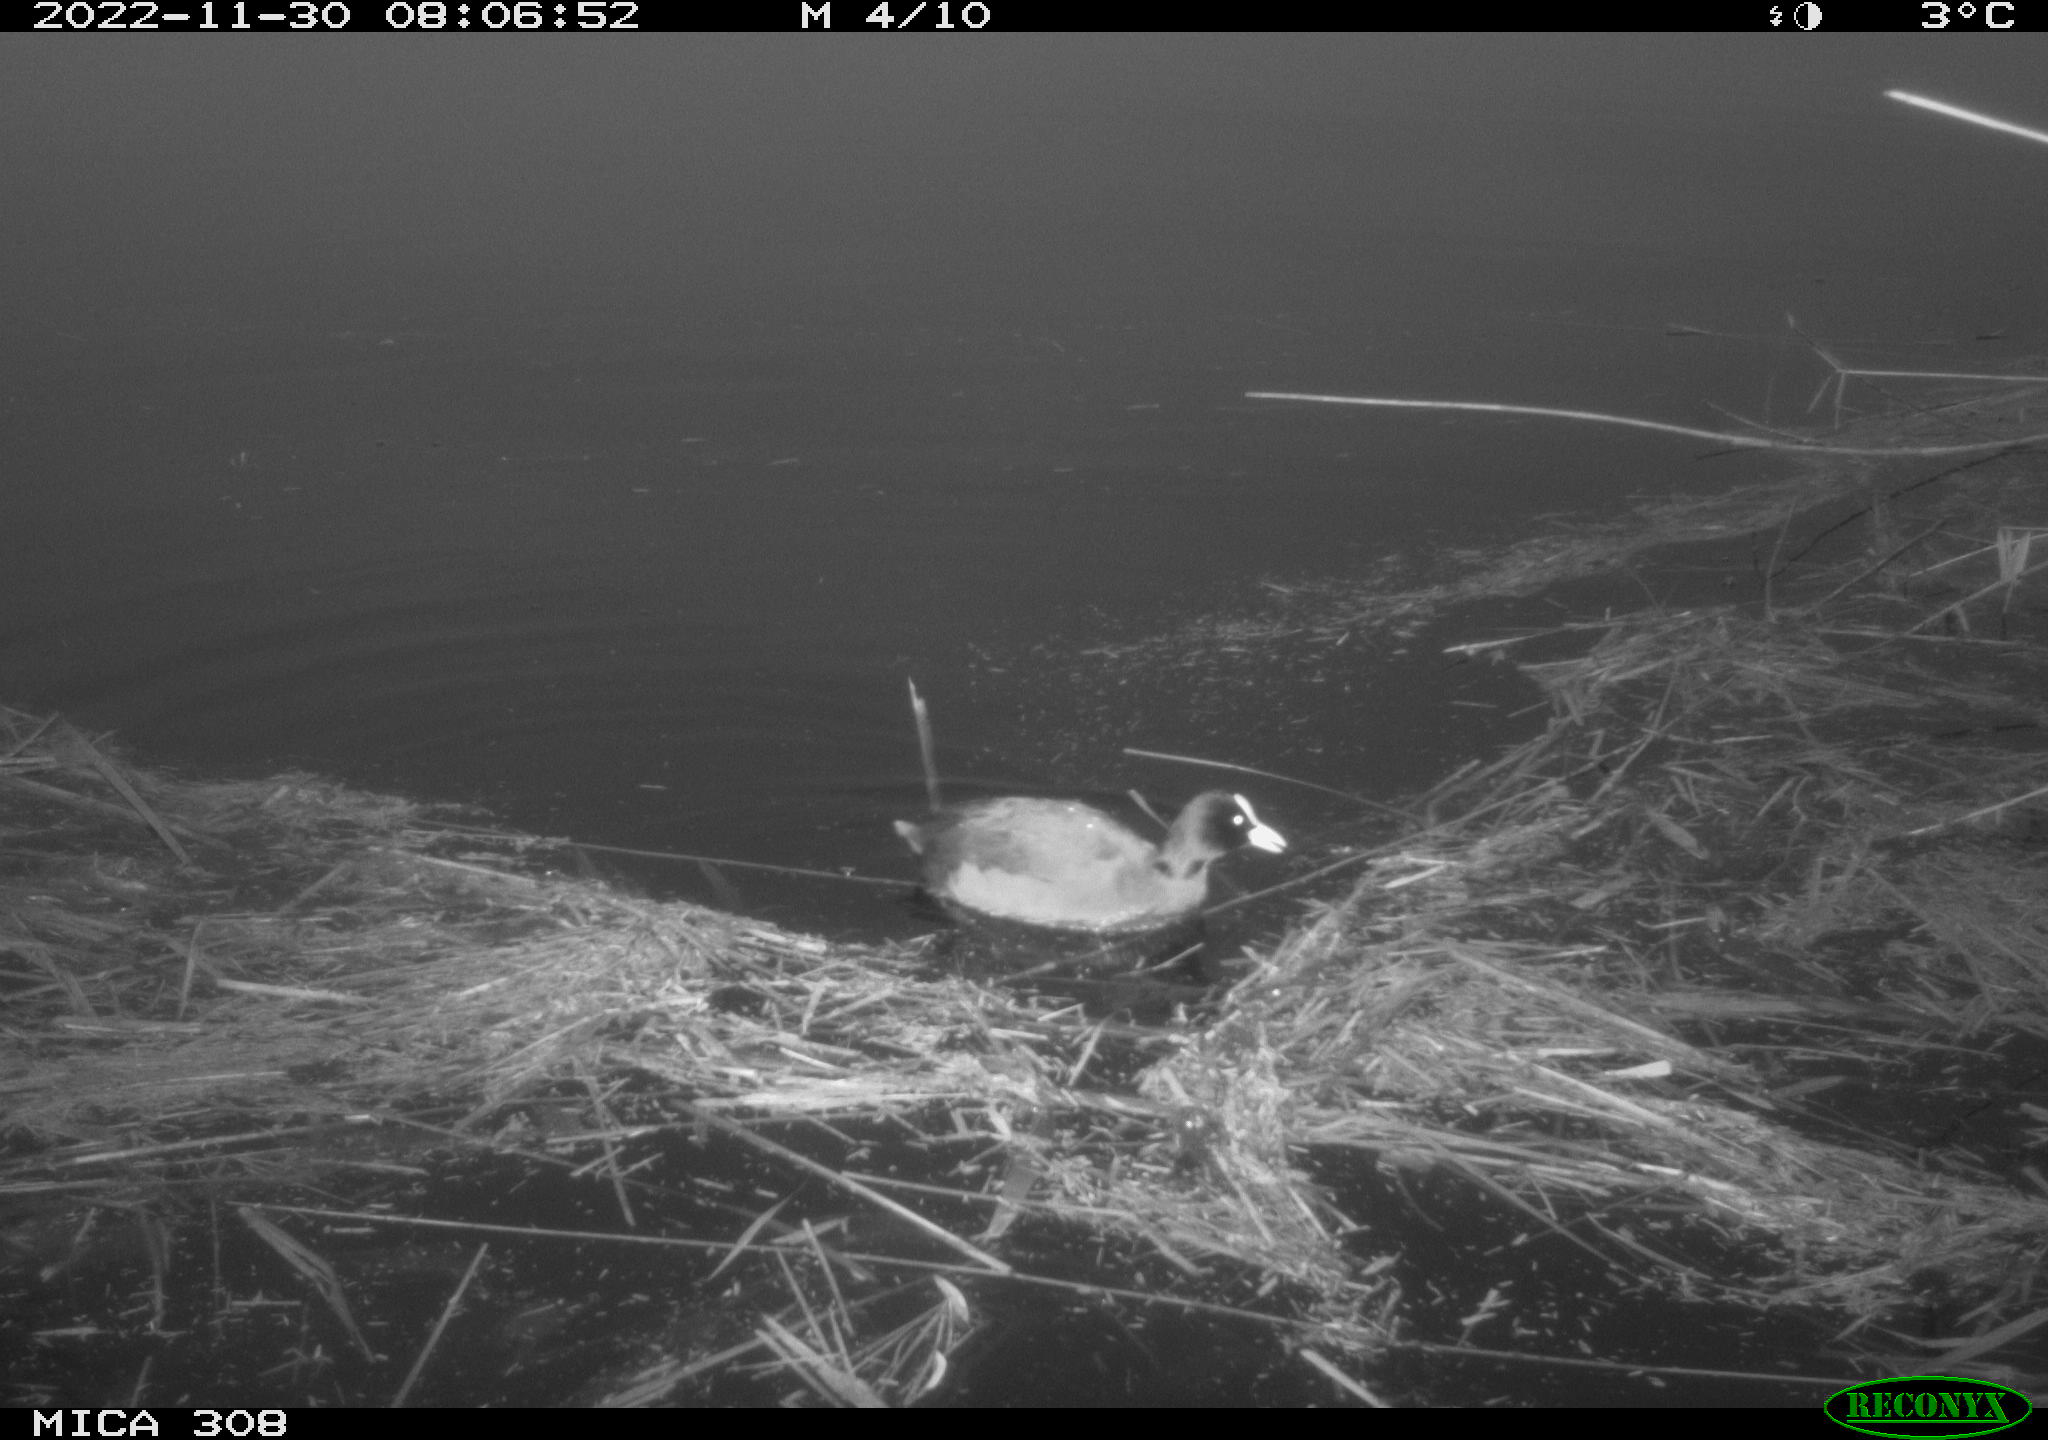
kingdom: Animalia
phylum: Chordata
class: Aves
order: Gruiformes
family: Rallidae
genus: Fulica
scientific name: Fulica atra
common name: Eurasian coot
